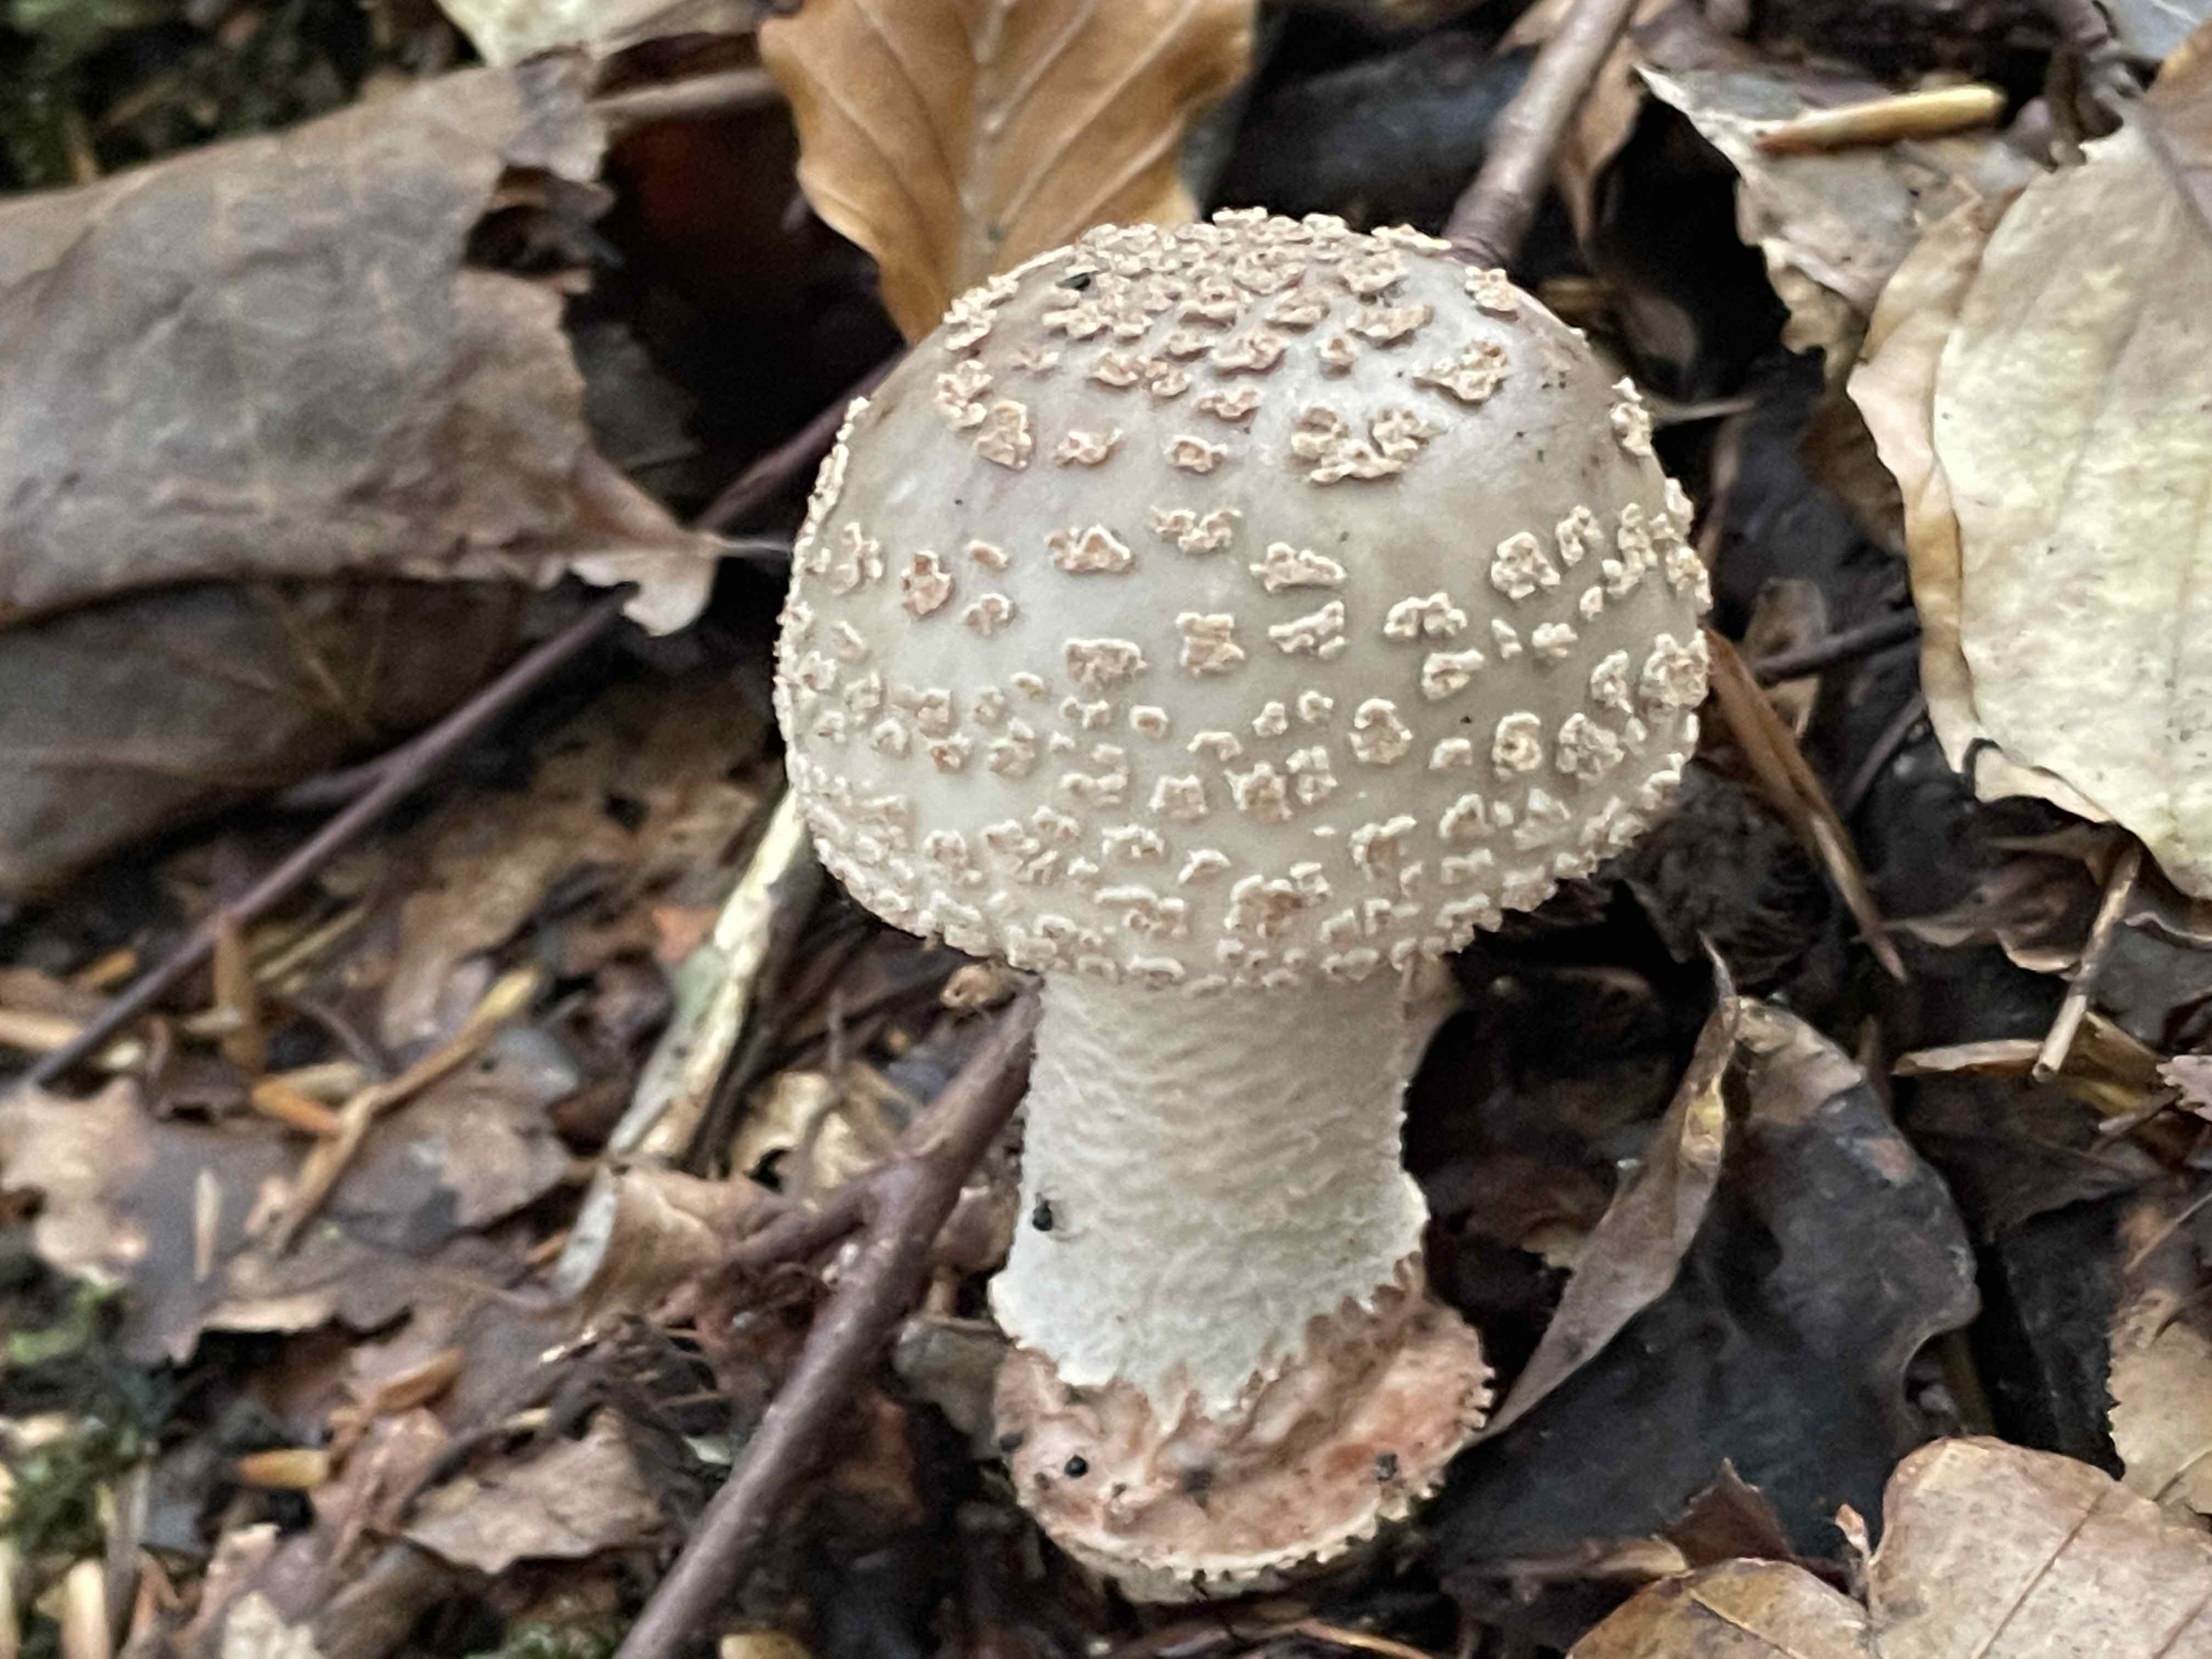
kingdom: Fungi
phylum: Basidiomycota
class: Agaricomycetes
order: Agaricales
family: Amanitaceae
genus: Amanita
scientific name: Amanita rubescens
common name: rødmende fluesvamp
